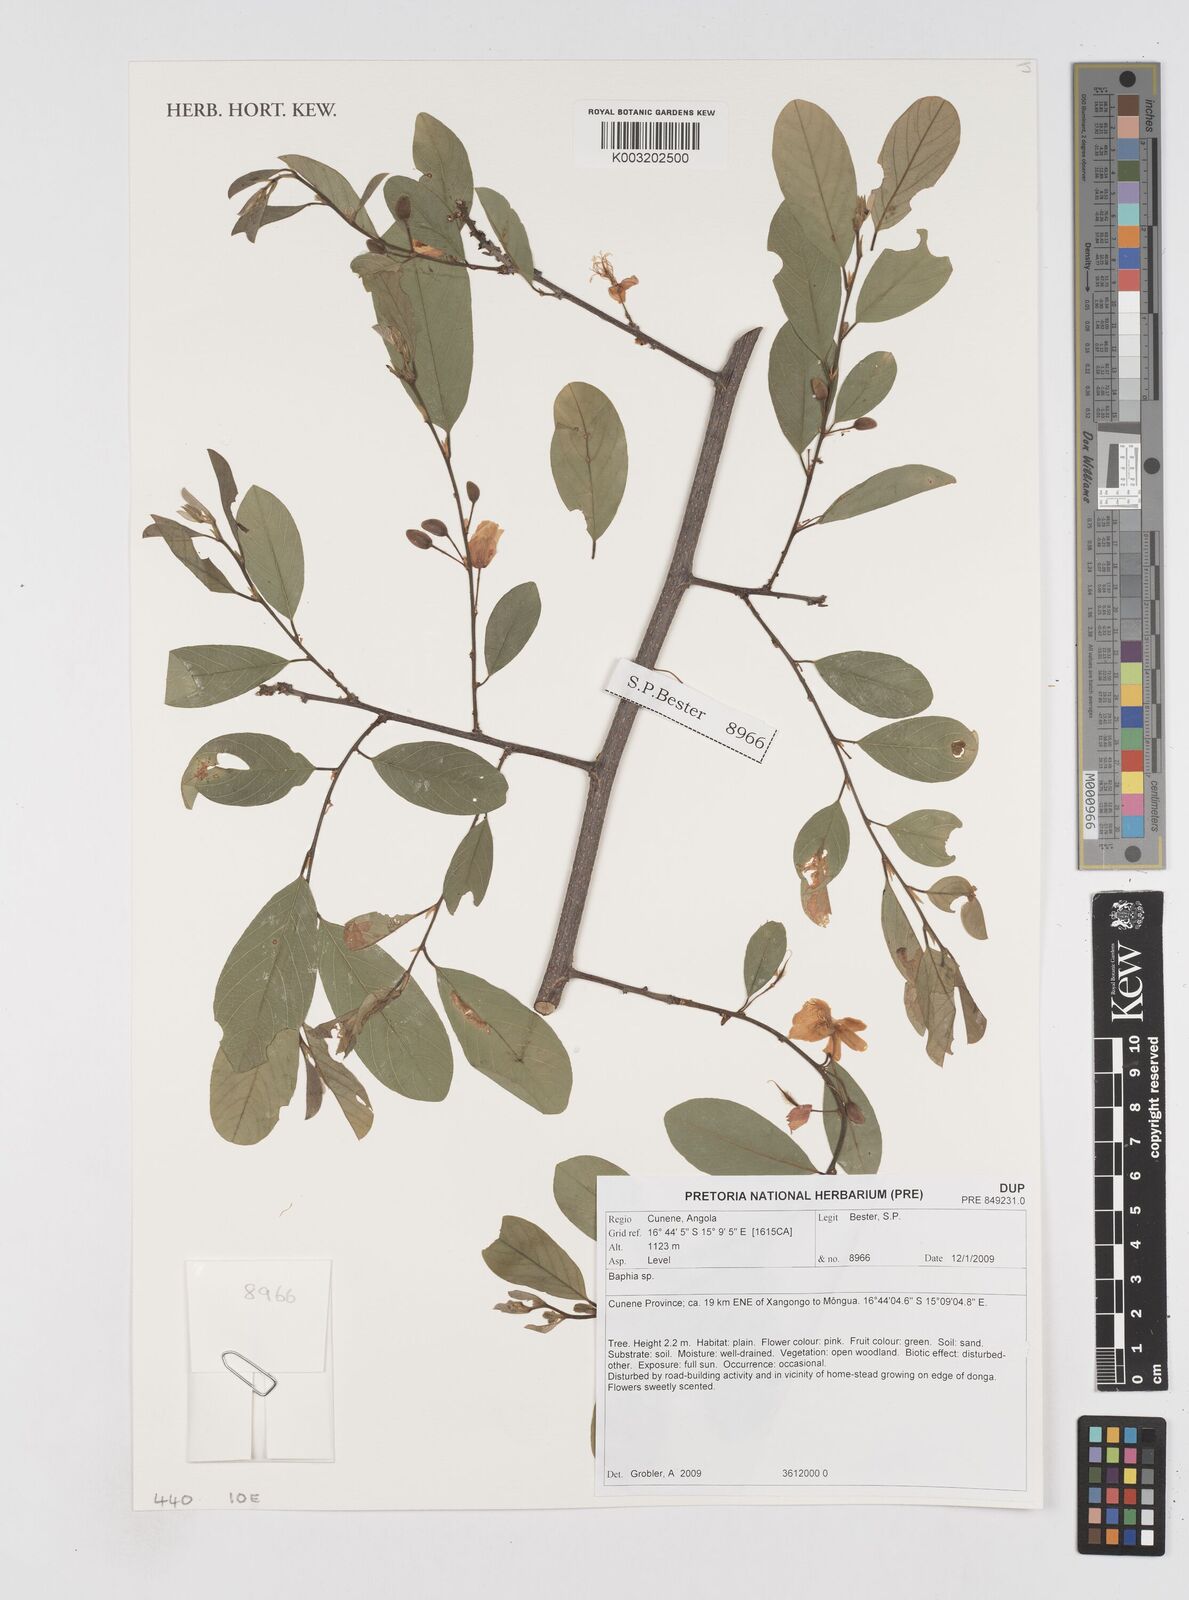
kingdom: Plantae
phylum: Tracheophyta
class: Magnoliopsida
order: Fabales
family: Fabaceae
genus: Baphia
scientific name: Baphia
